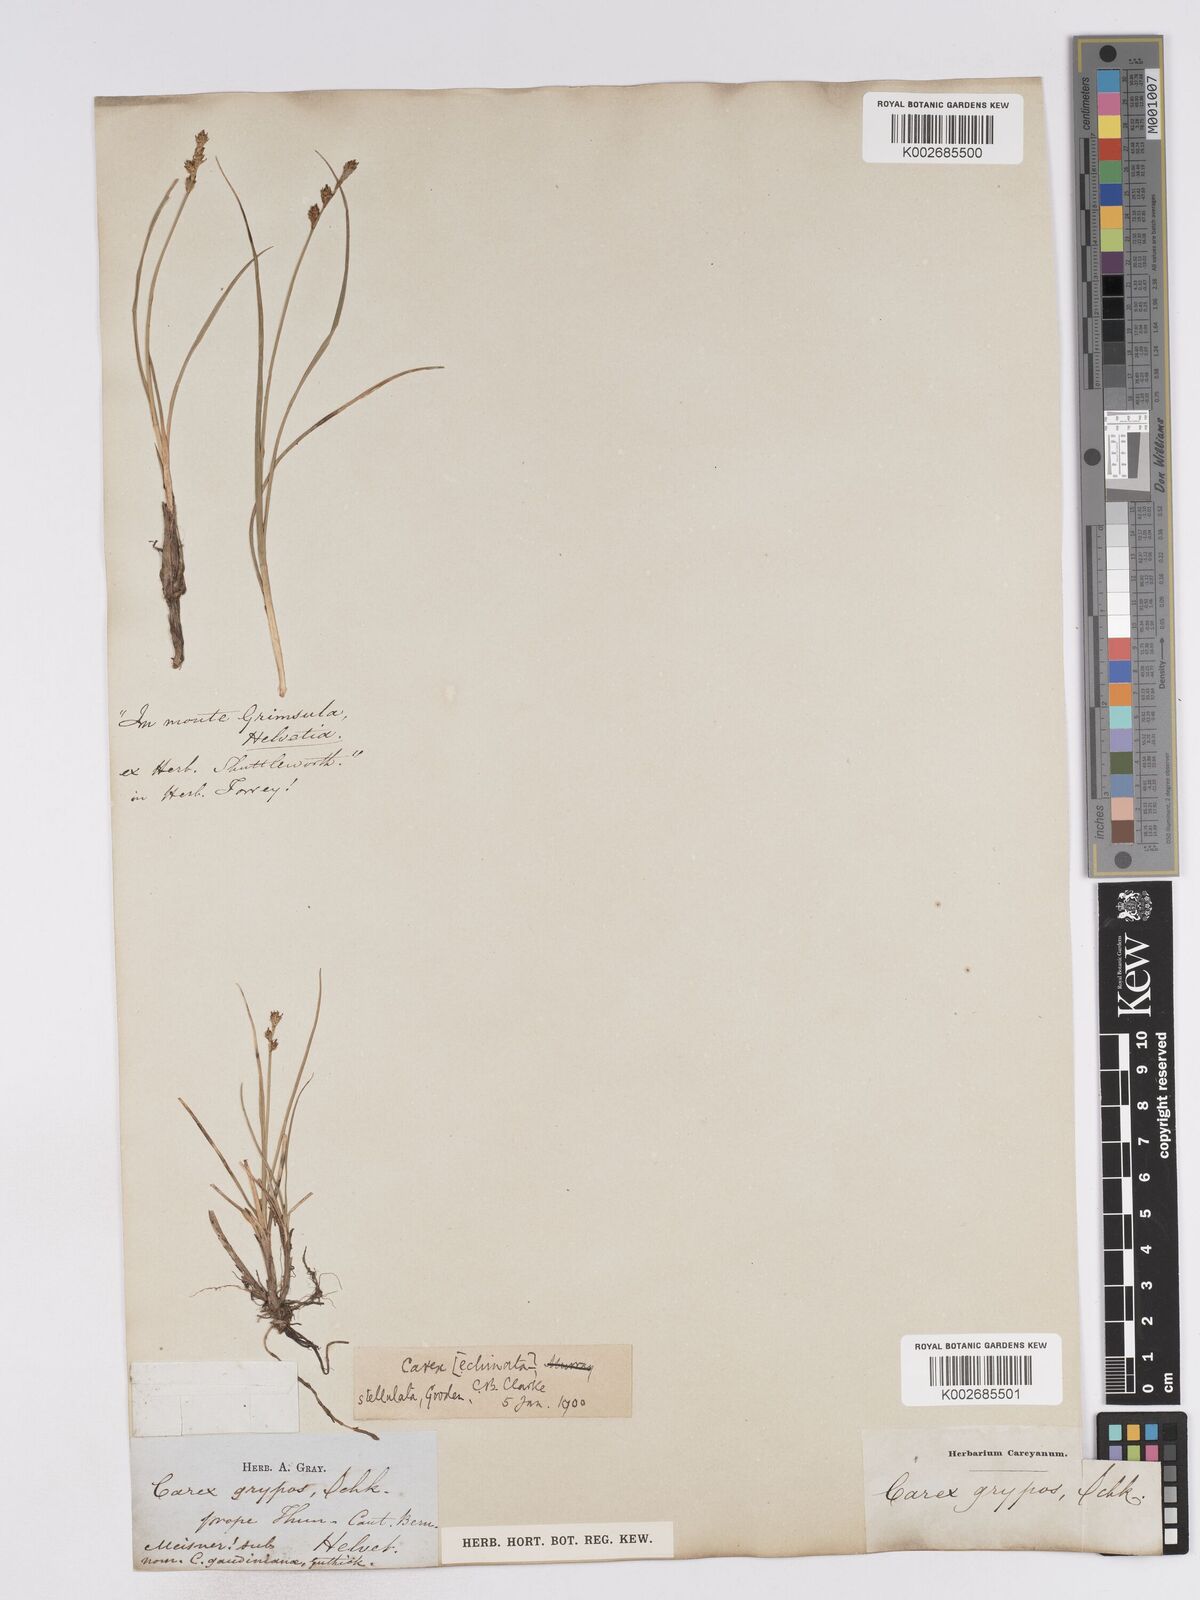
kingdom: Plantae
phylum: Tracheophyta
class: Liliopsida
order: Poales
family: Cyperaceae
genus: Carex
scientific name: Carex echinata
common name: Star sedge
